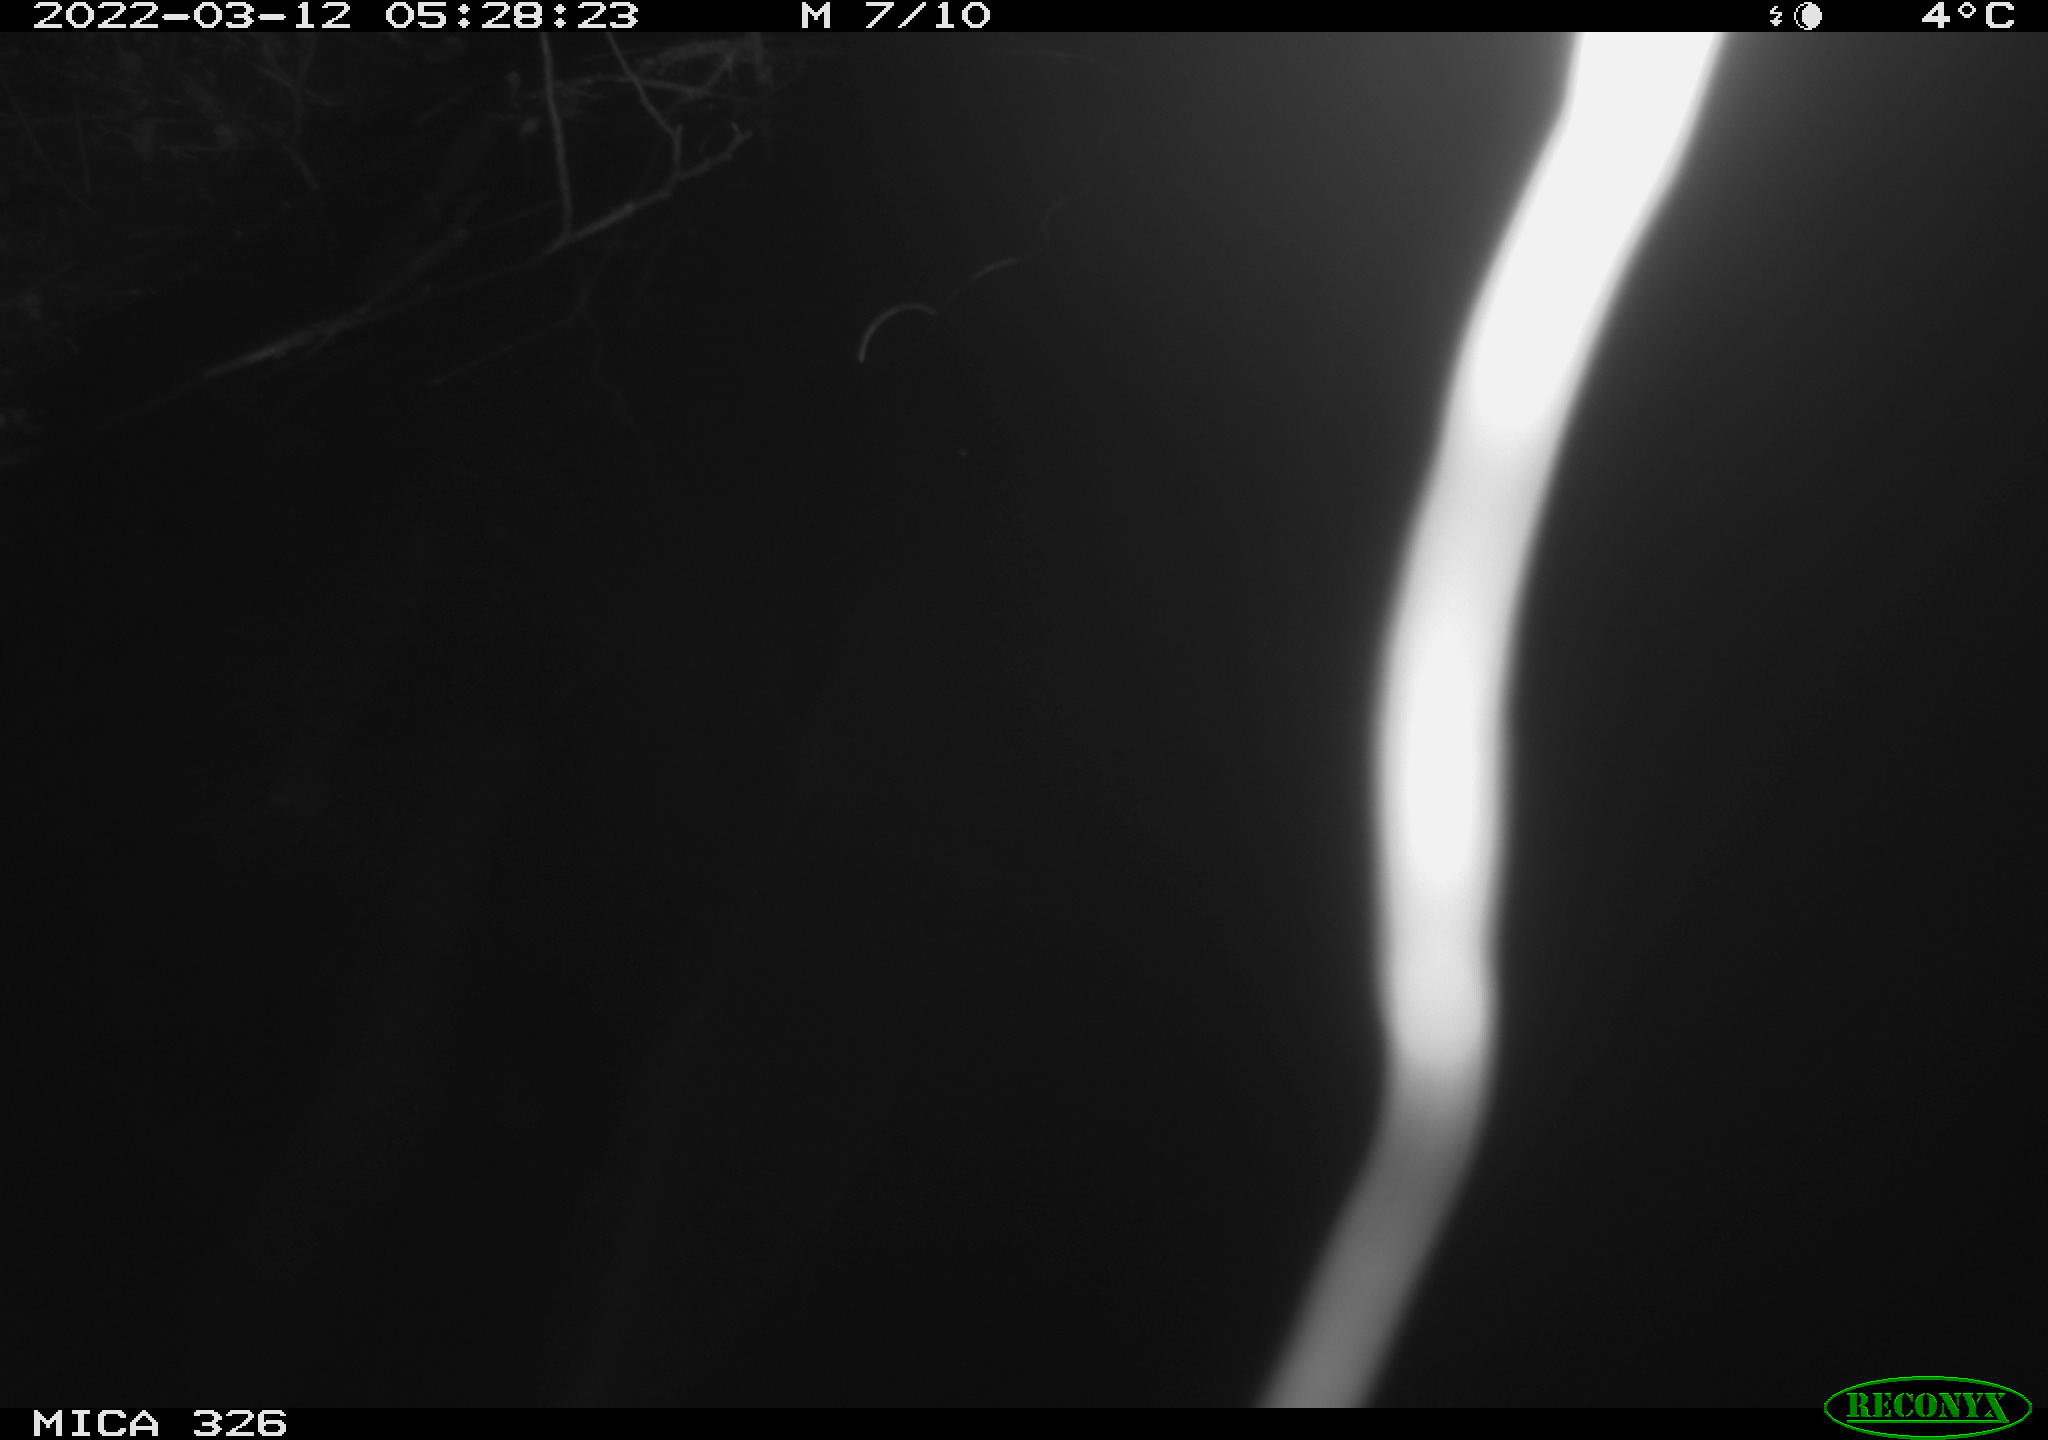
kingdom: Animalia
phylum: Chordata
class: Mammalia
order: Rodentia
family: Muridae
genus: Rattus
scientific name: Rattus norvegicus
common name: Brown rat
